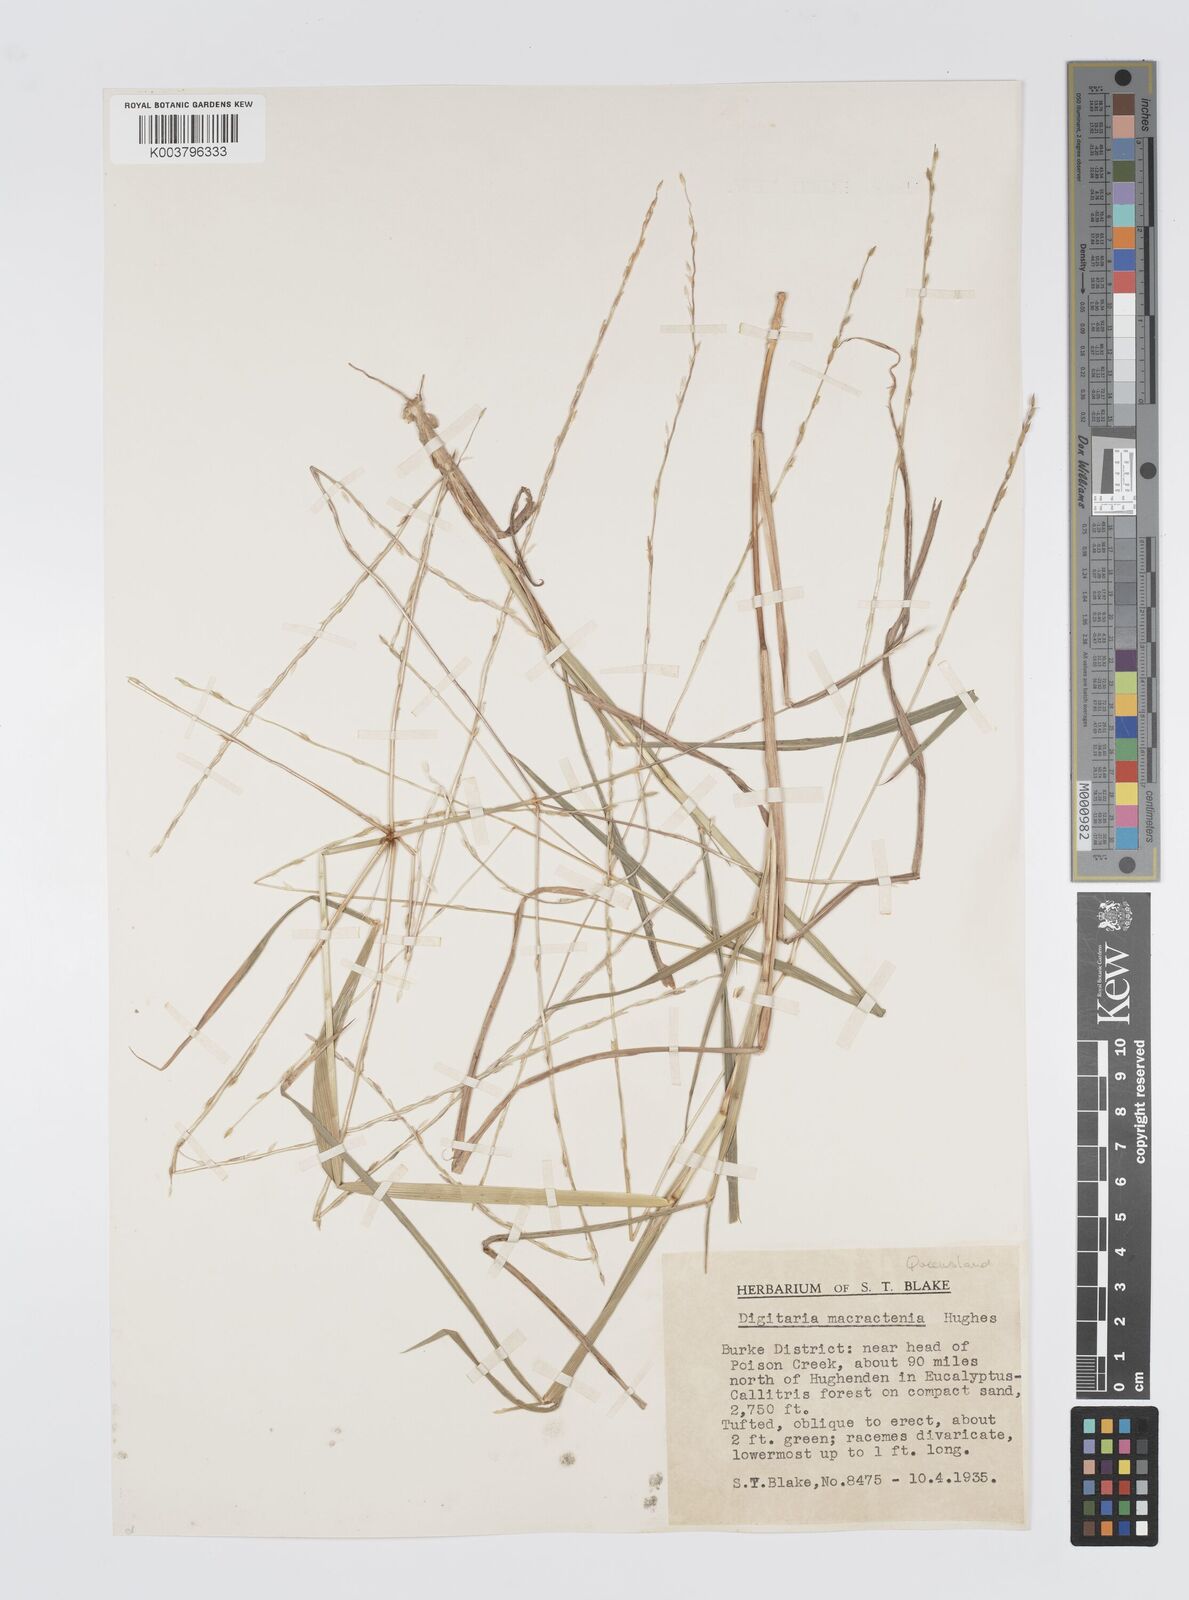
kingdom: Plantae
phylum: Tracheophyta
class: Liliopsida
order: Poales
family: Poaceae
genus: Digitaria
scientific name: Digitaria spec
